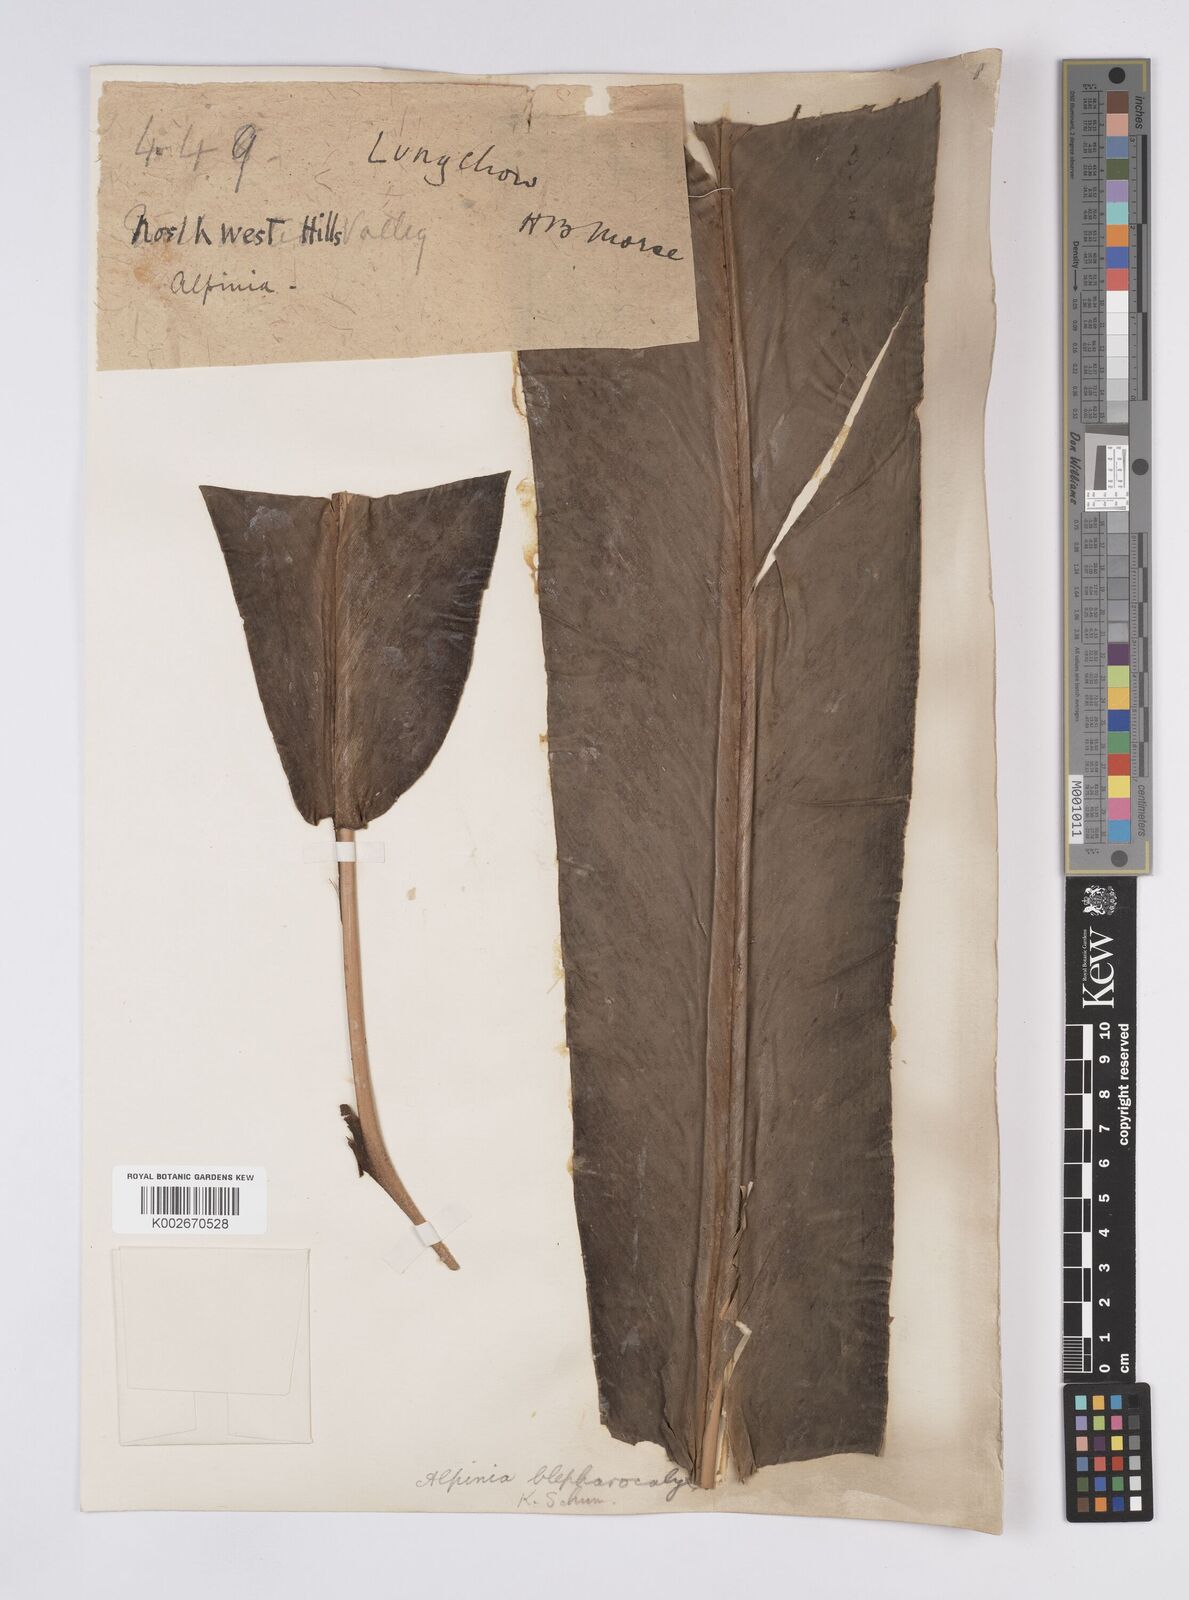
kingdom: Plantae
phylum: Tracheophyta
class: Liliopsida
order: Zingiberales
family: Zingiberaceae
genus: Alpinia
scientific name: Alpinia roxburghii
